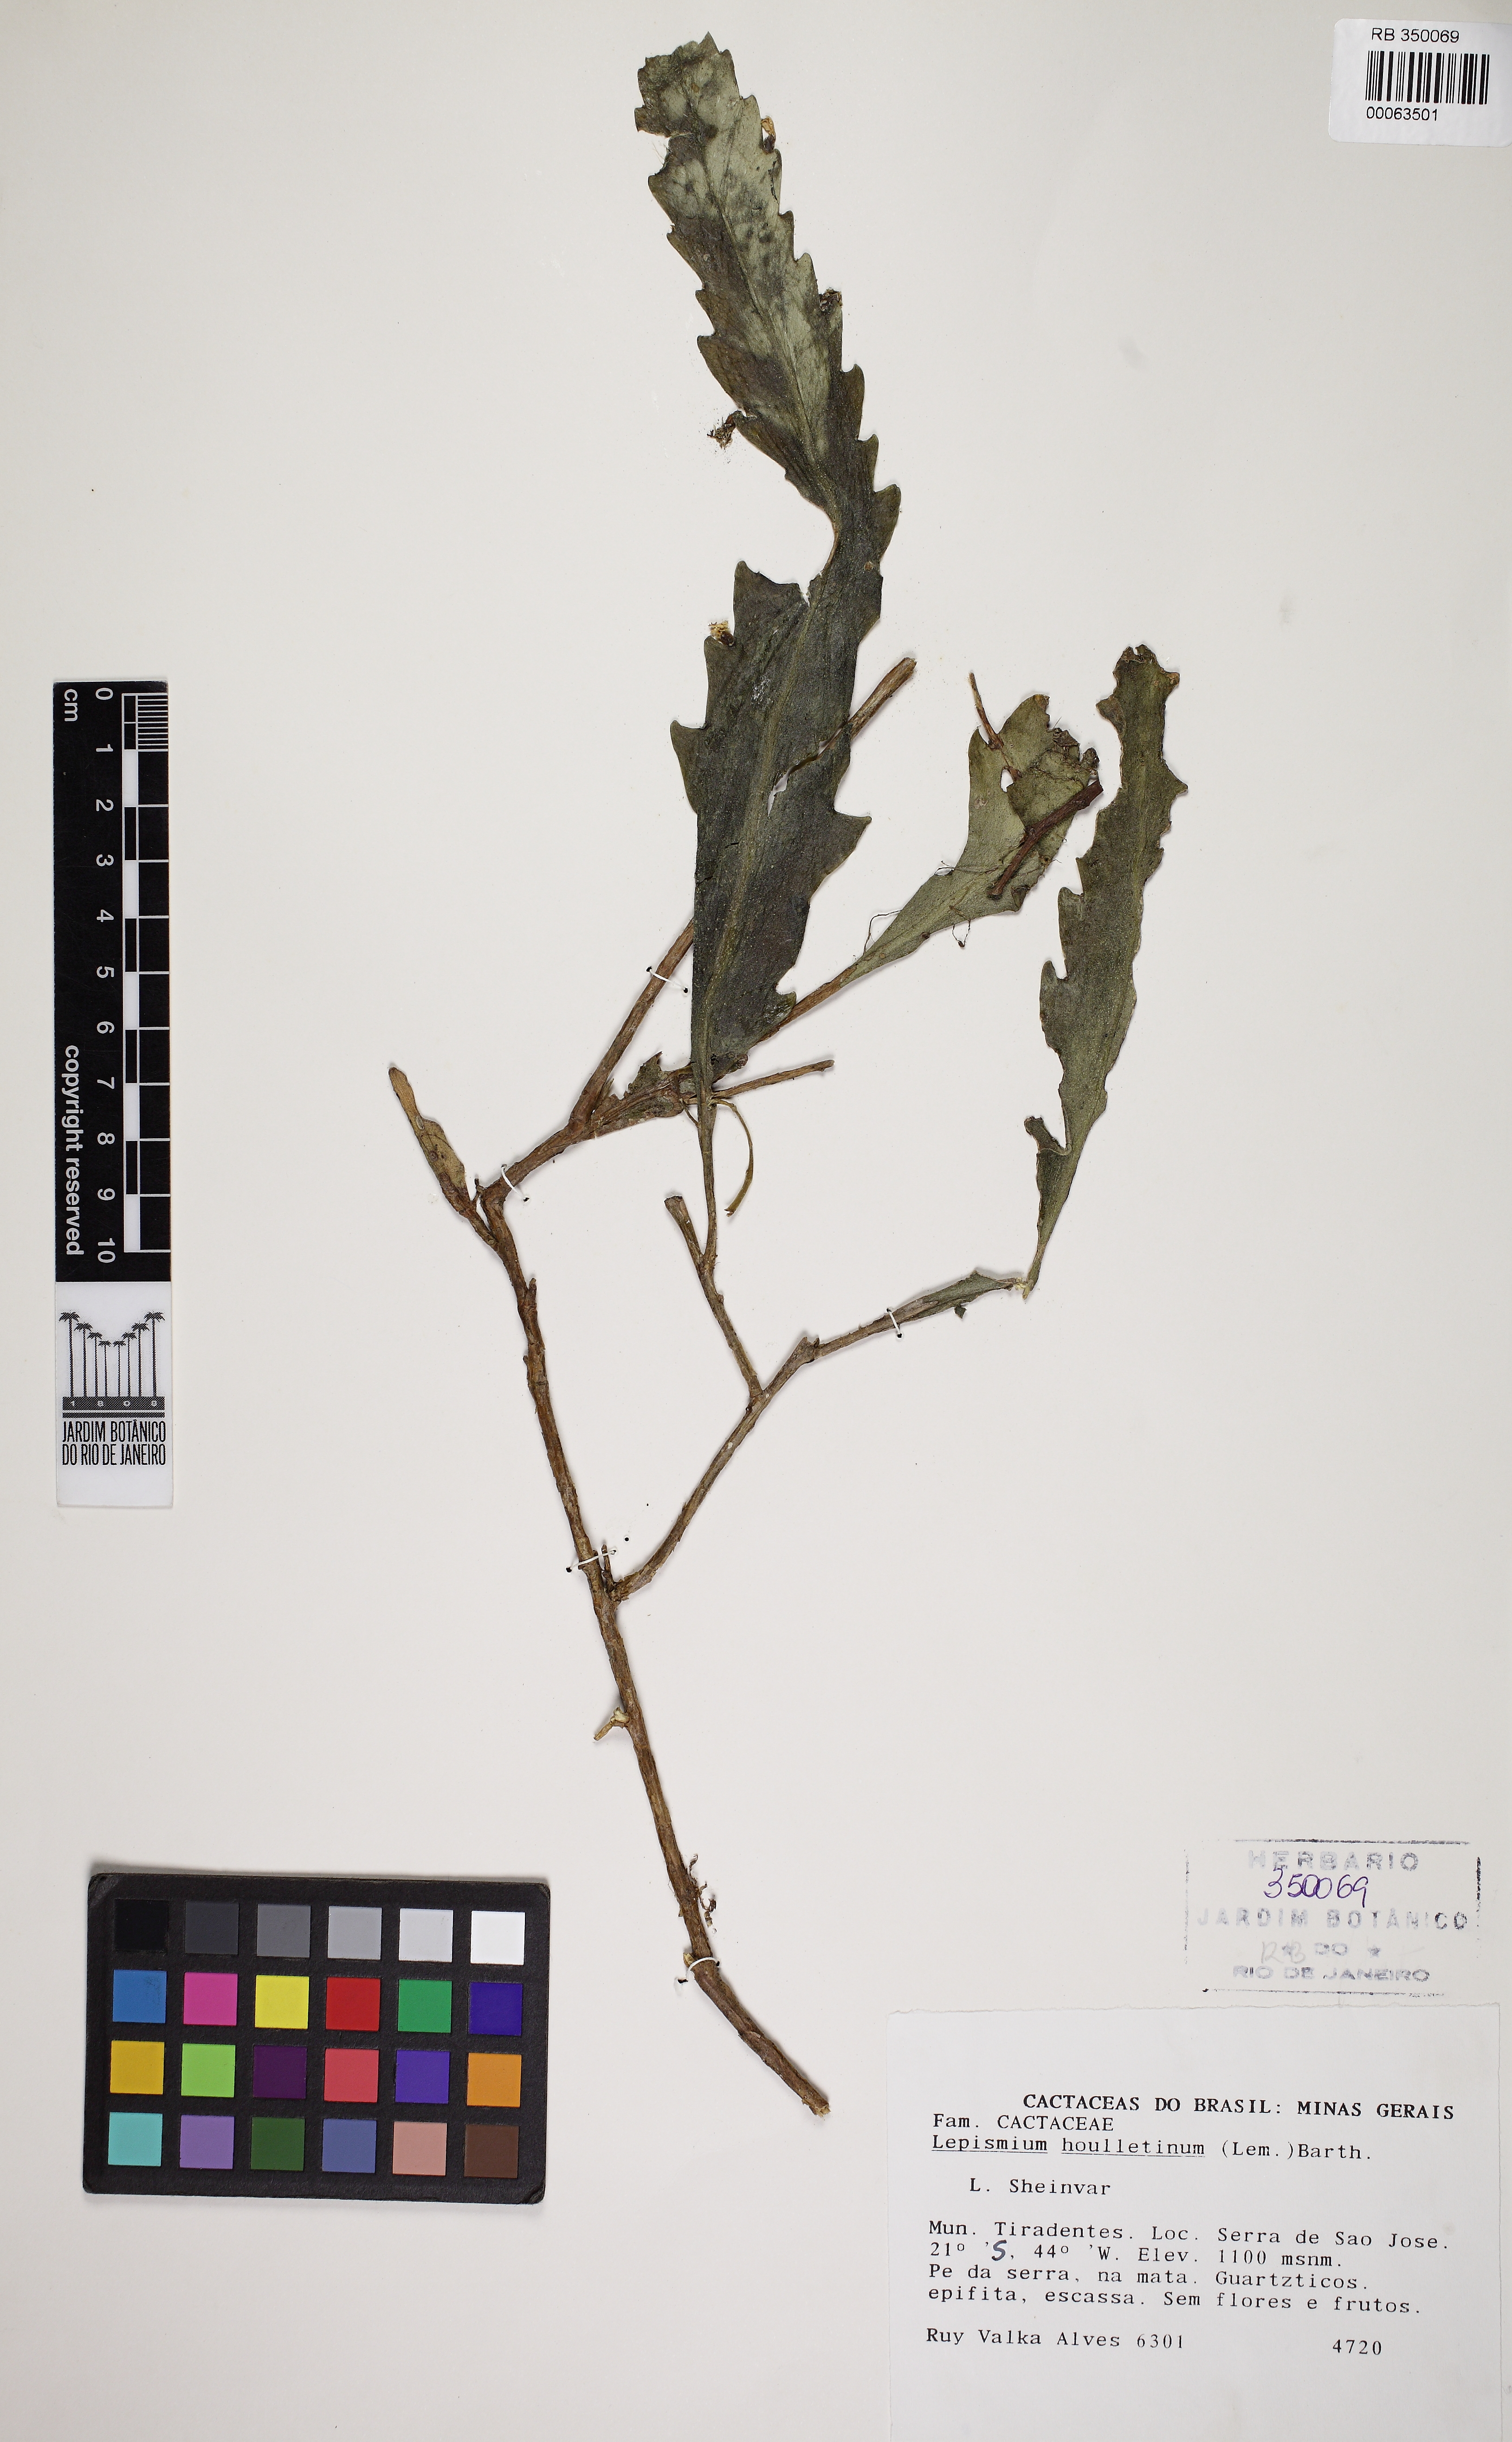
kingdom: Plantae
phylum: Tracheophyta
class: Magnoliopsida
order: Caryophyllales
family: Cactaceae
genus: Lepismium
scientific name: Lepismium houlletianum
